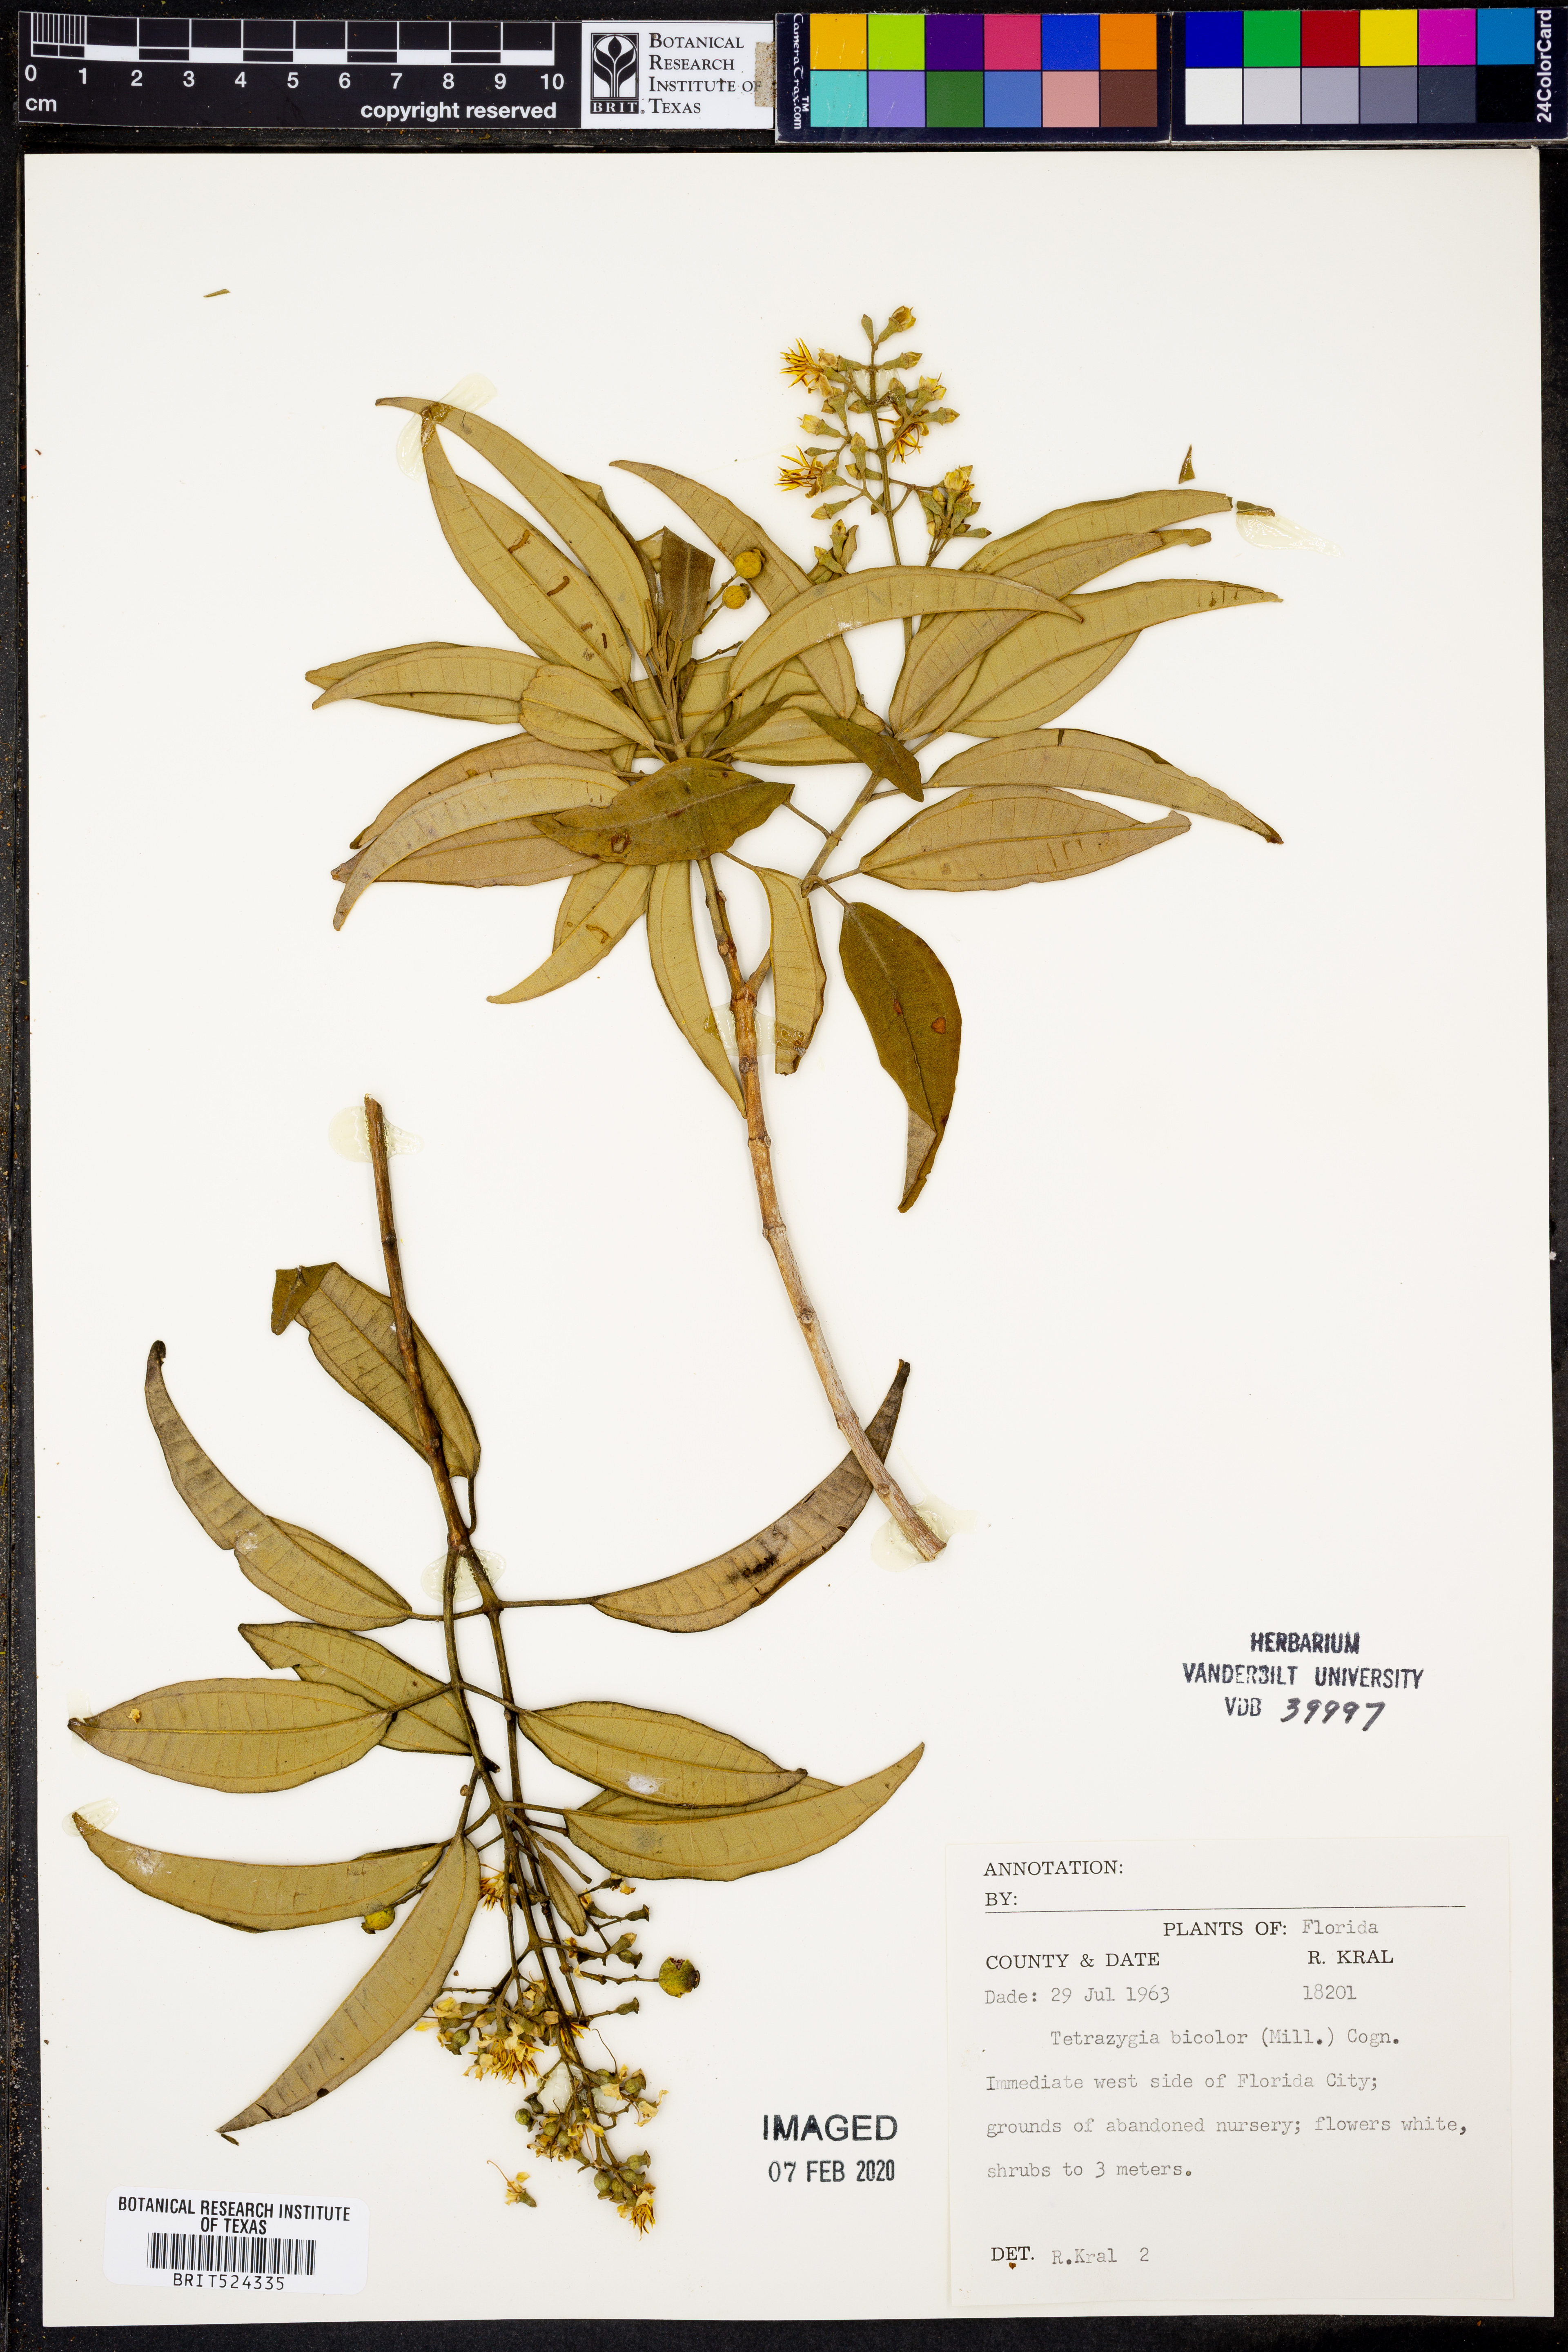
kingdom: Plantae
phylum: Tracheophyta
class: Magnoliopsida
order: Myrtales
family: Melastomataceae
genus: Miconia
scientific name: Miconia bicolor
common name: Johnnyberry
